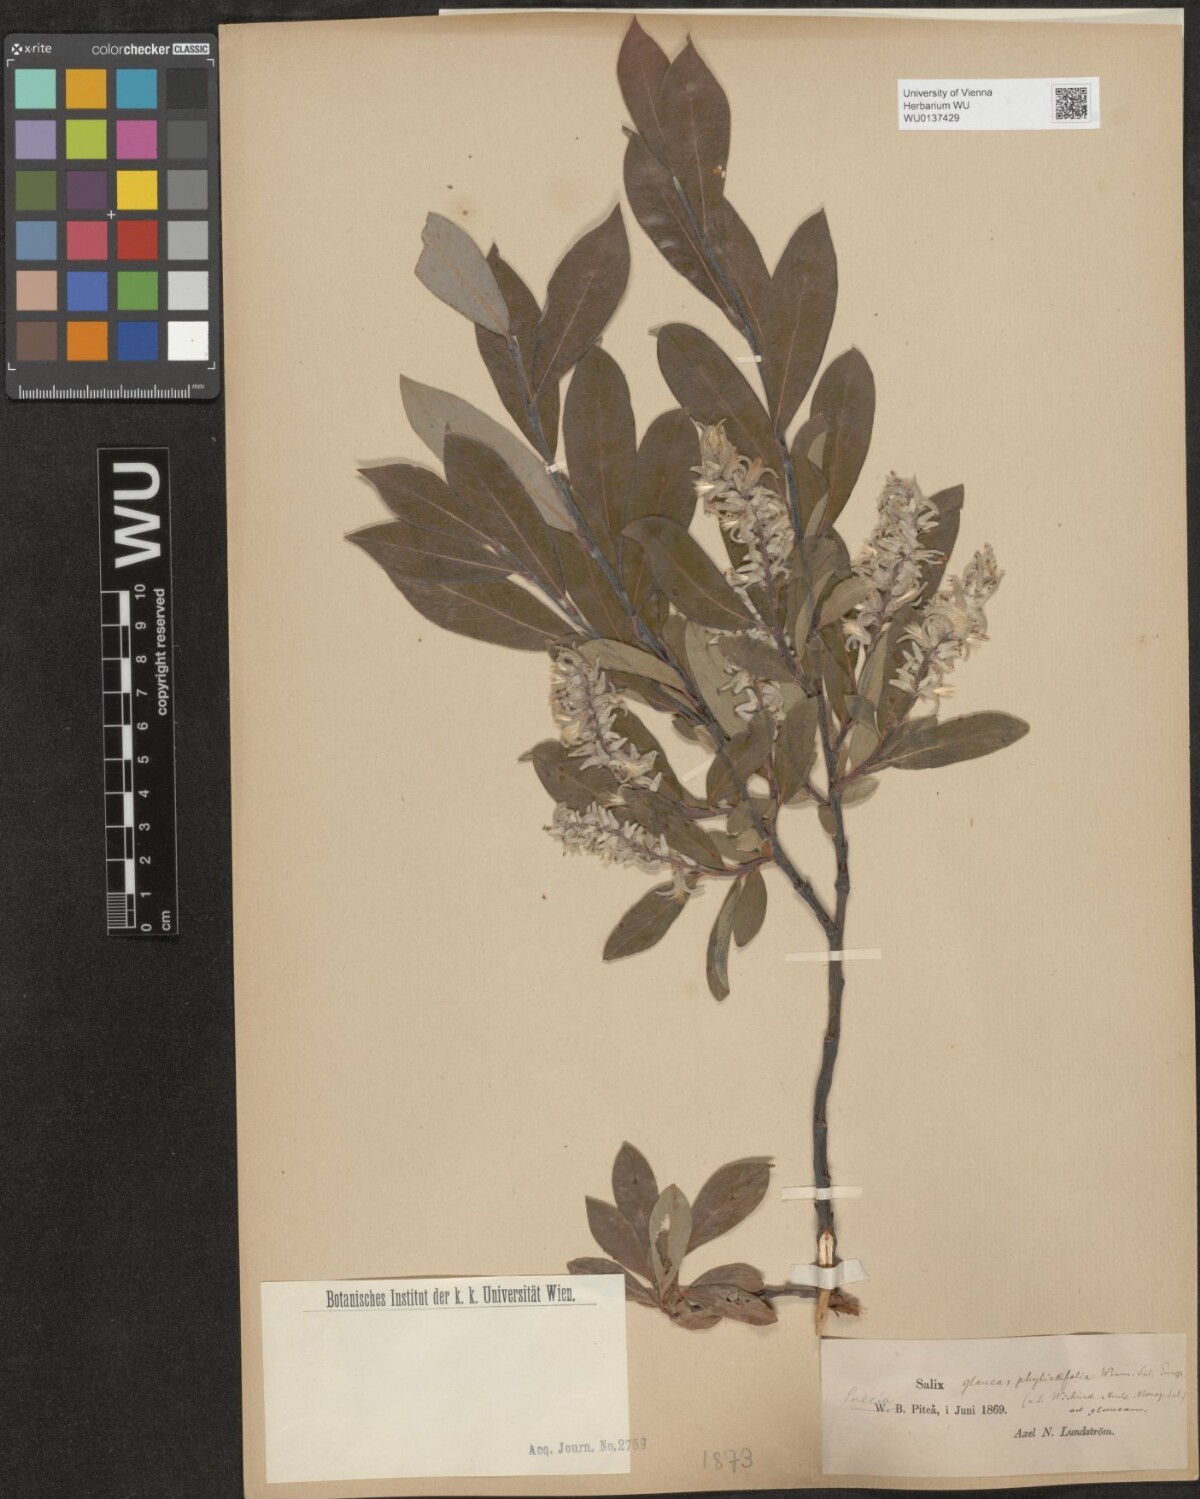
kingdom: Plantae
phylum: Tracheophyta
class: Magnoliopsida
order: Malpighiales
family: Salicaceae
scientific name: Salicaceae
